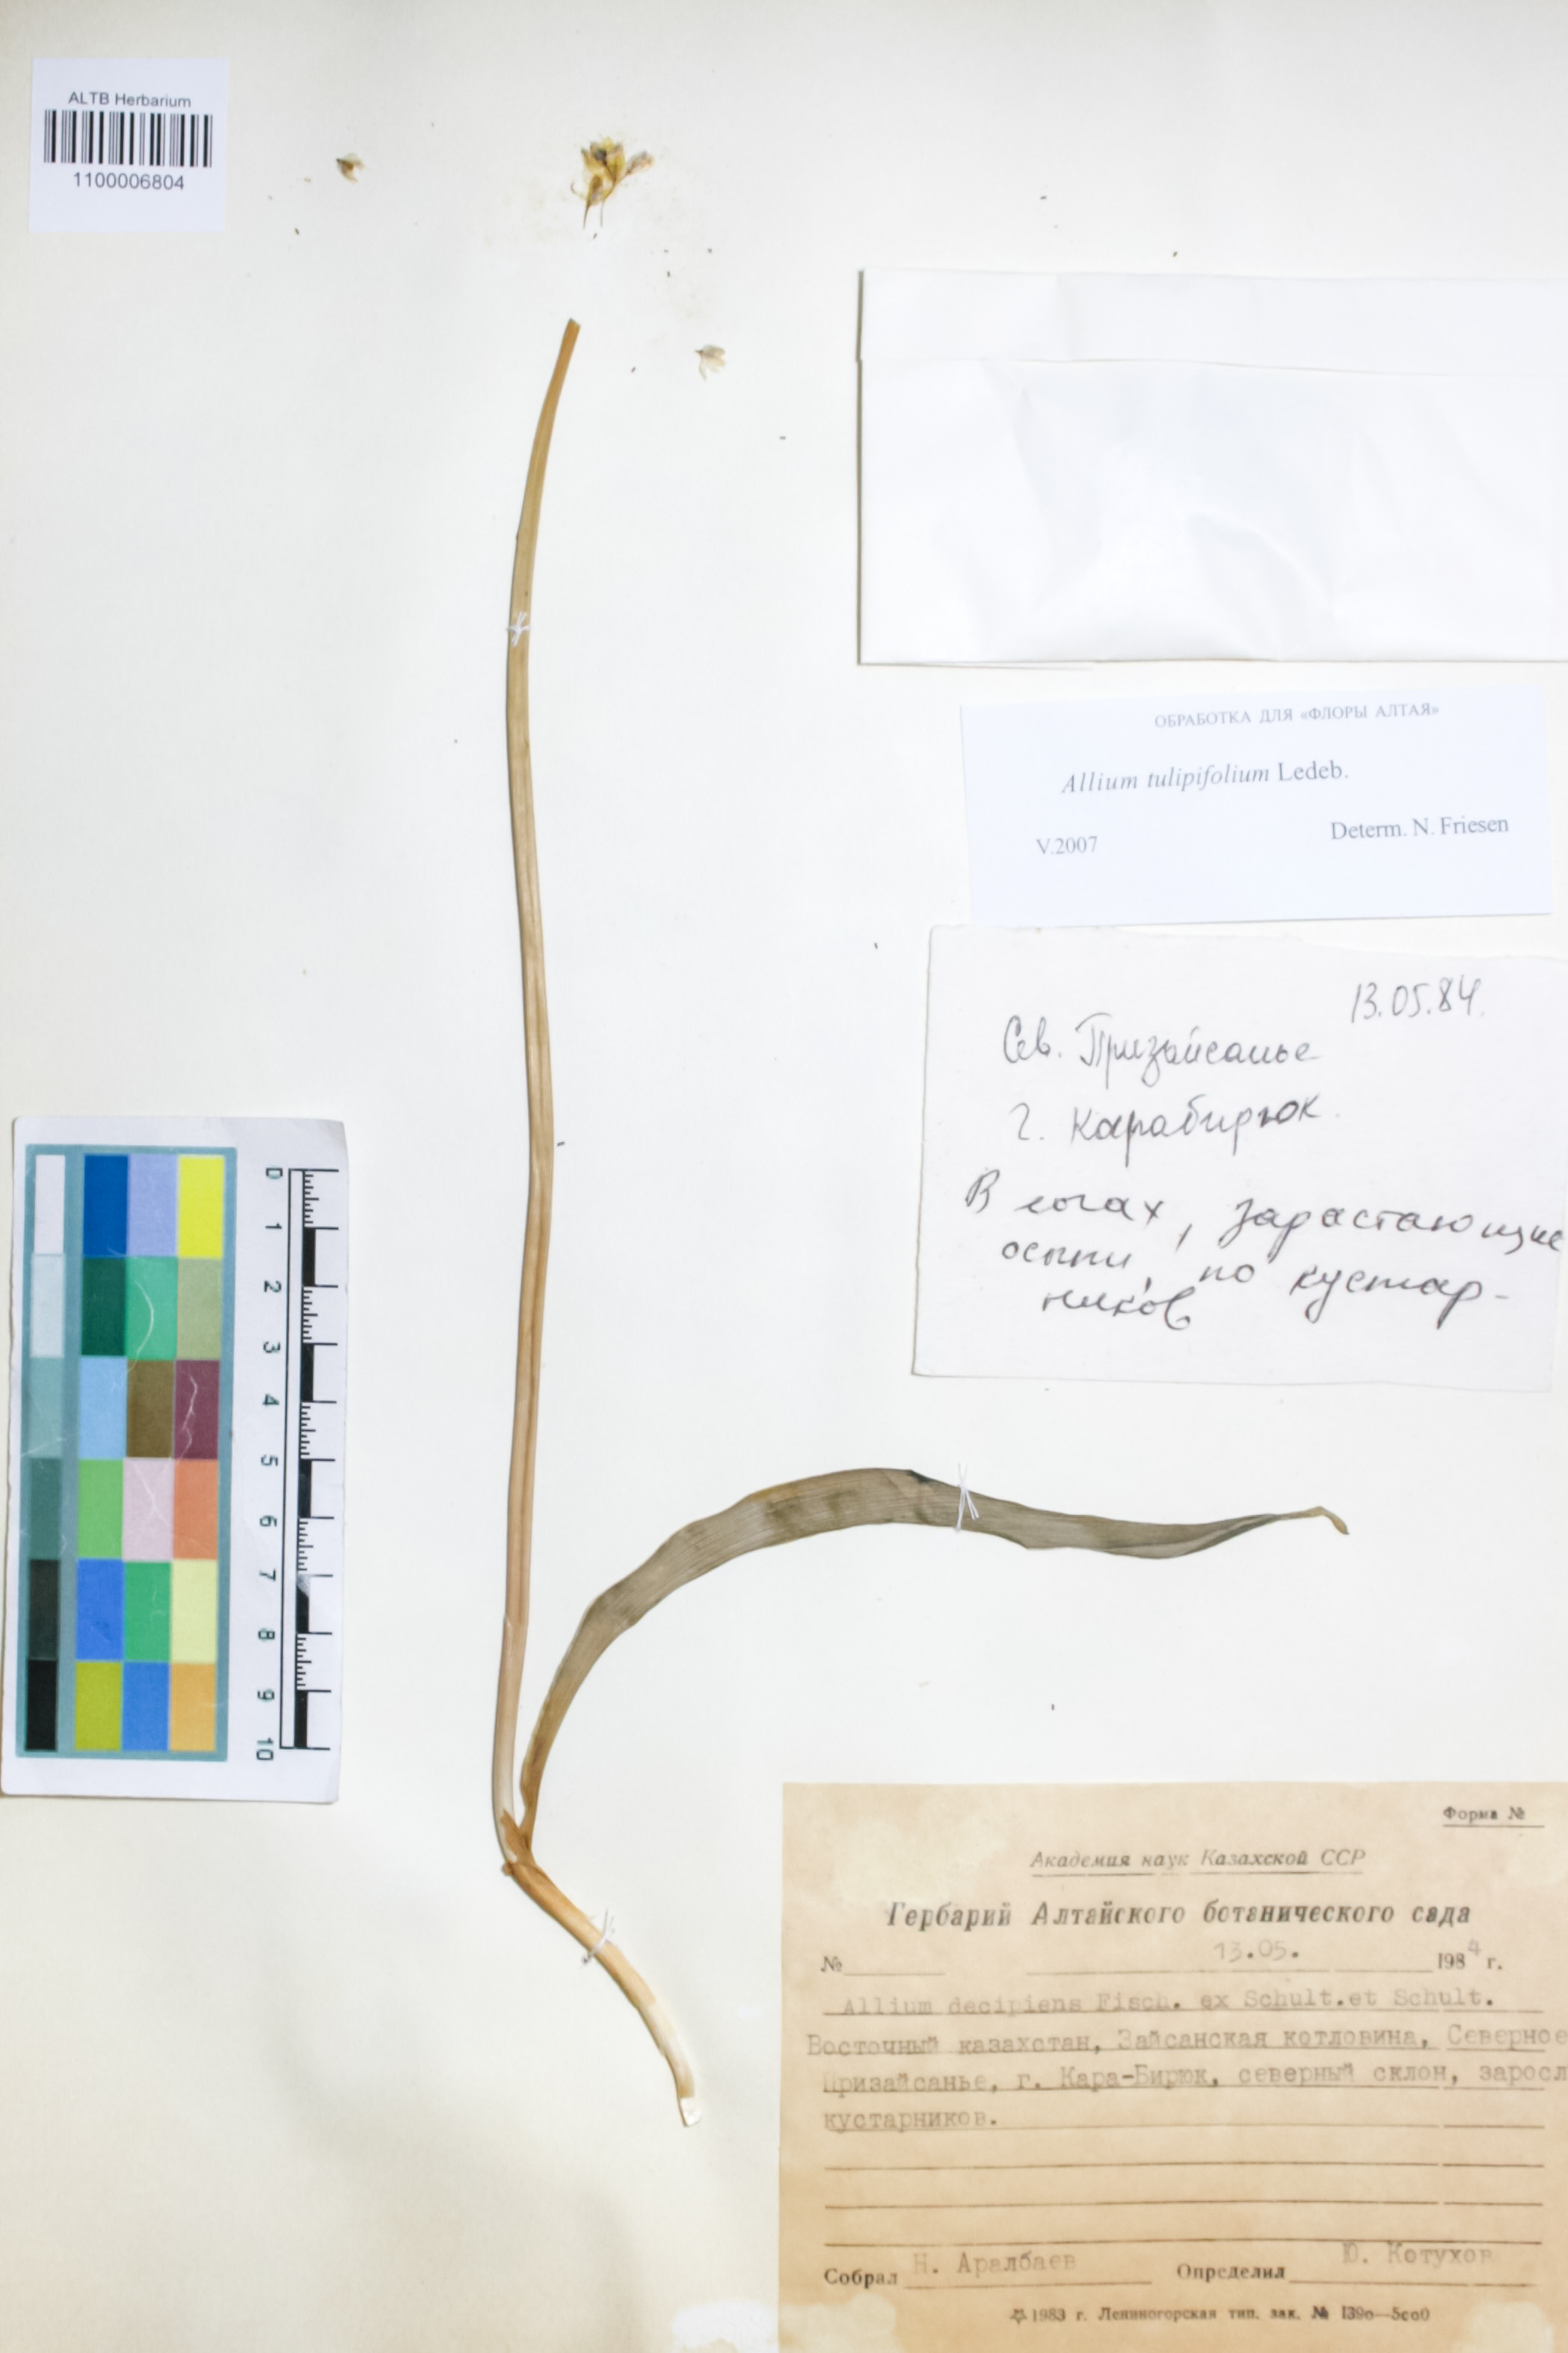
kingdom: Plantae
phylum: Tracheophyta
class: Liliopsida
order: Asparagales
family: Amaryllidaceae
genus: Allium
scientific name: Allium tulipifolium
